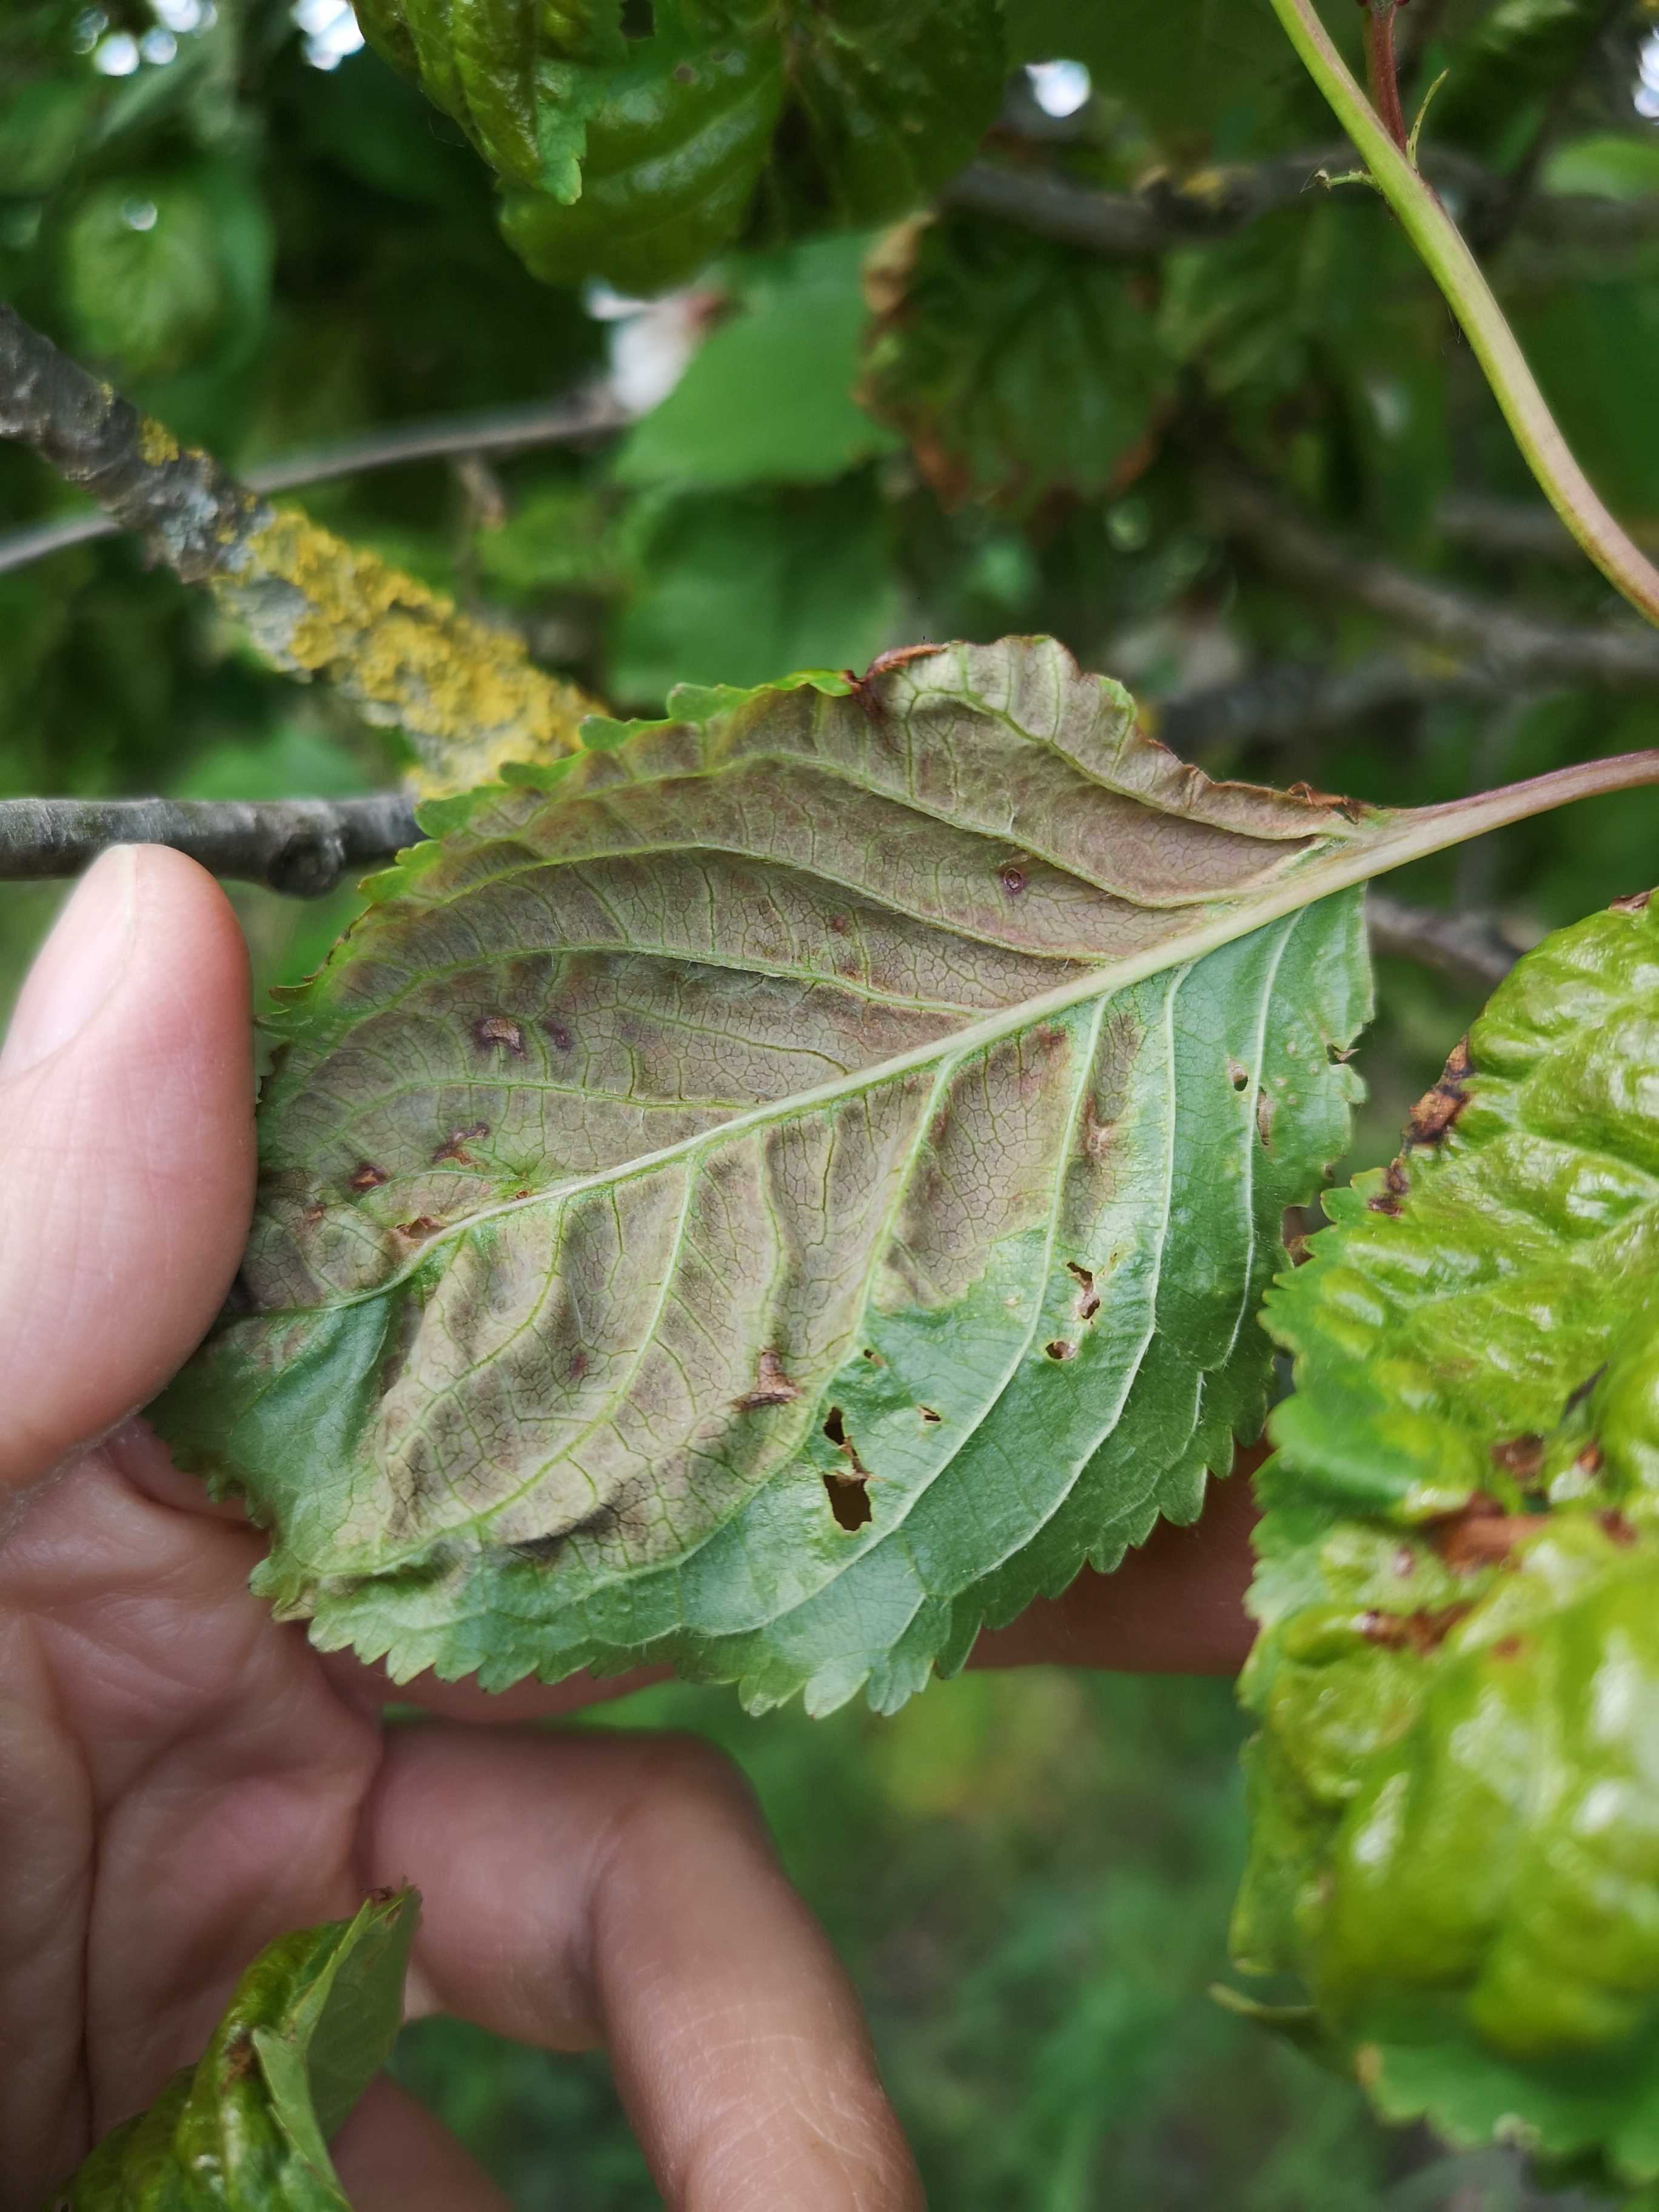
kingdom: Fungi
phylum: Ascomycota
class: Taphrinomycetes
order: Taphrinales
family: Taphrinaceae
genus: Taphrina
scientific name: Taphrina wiesneri
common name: Cherry leaf curl
